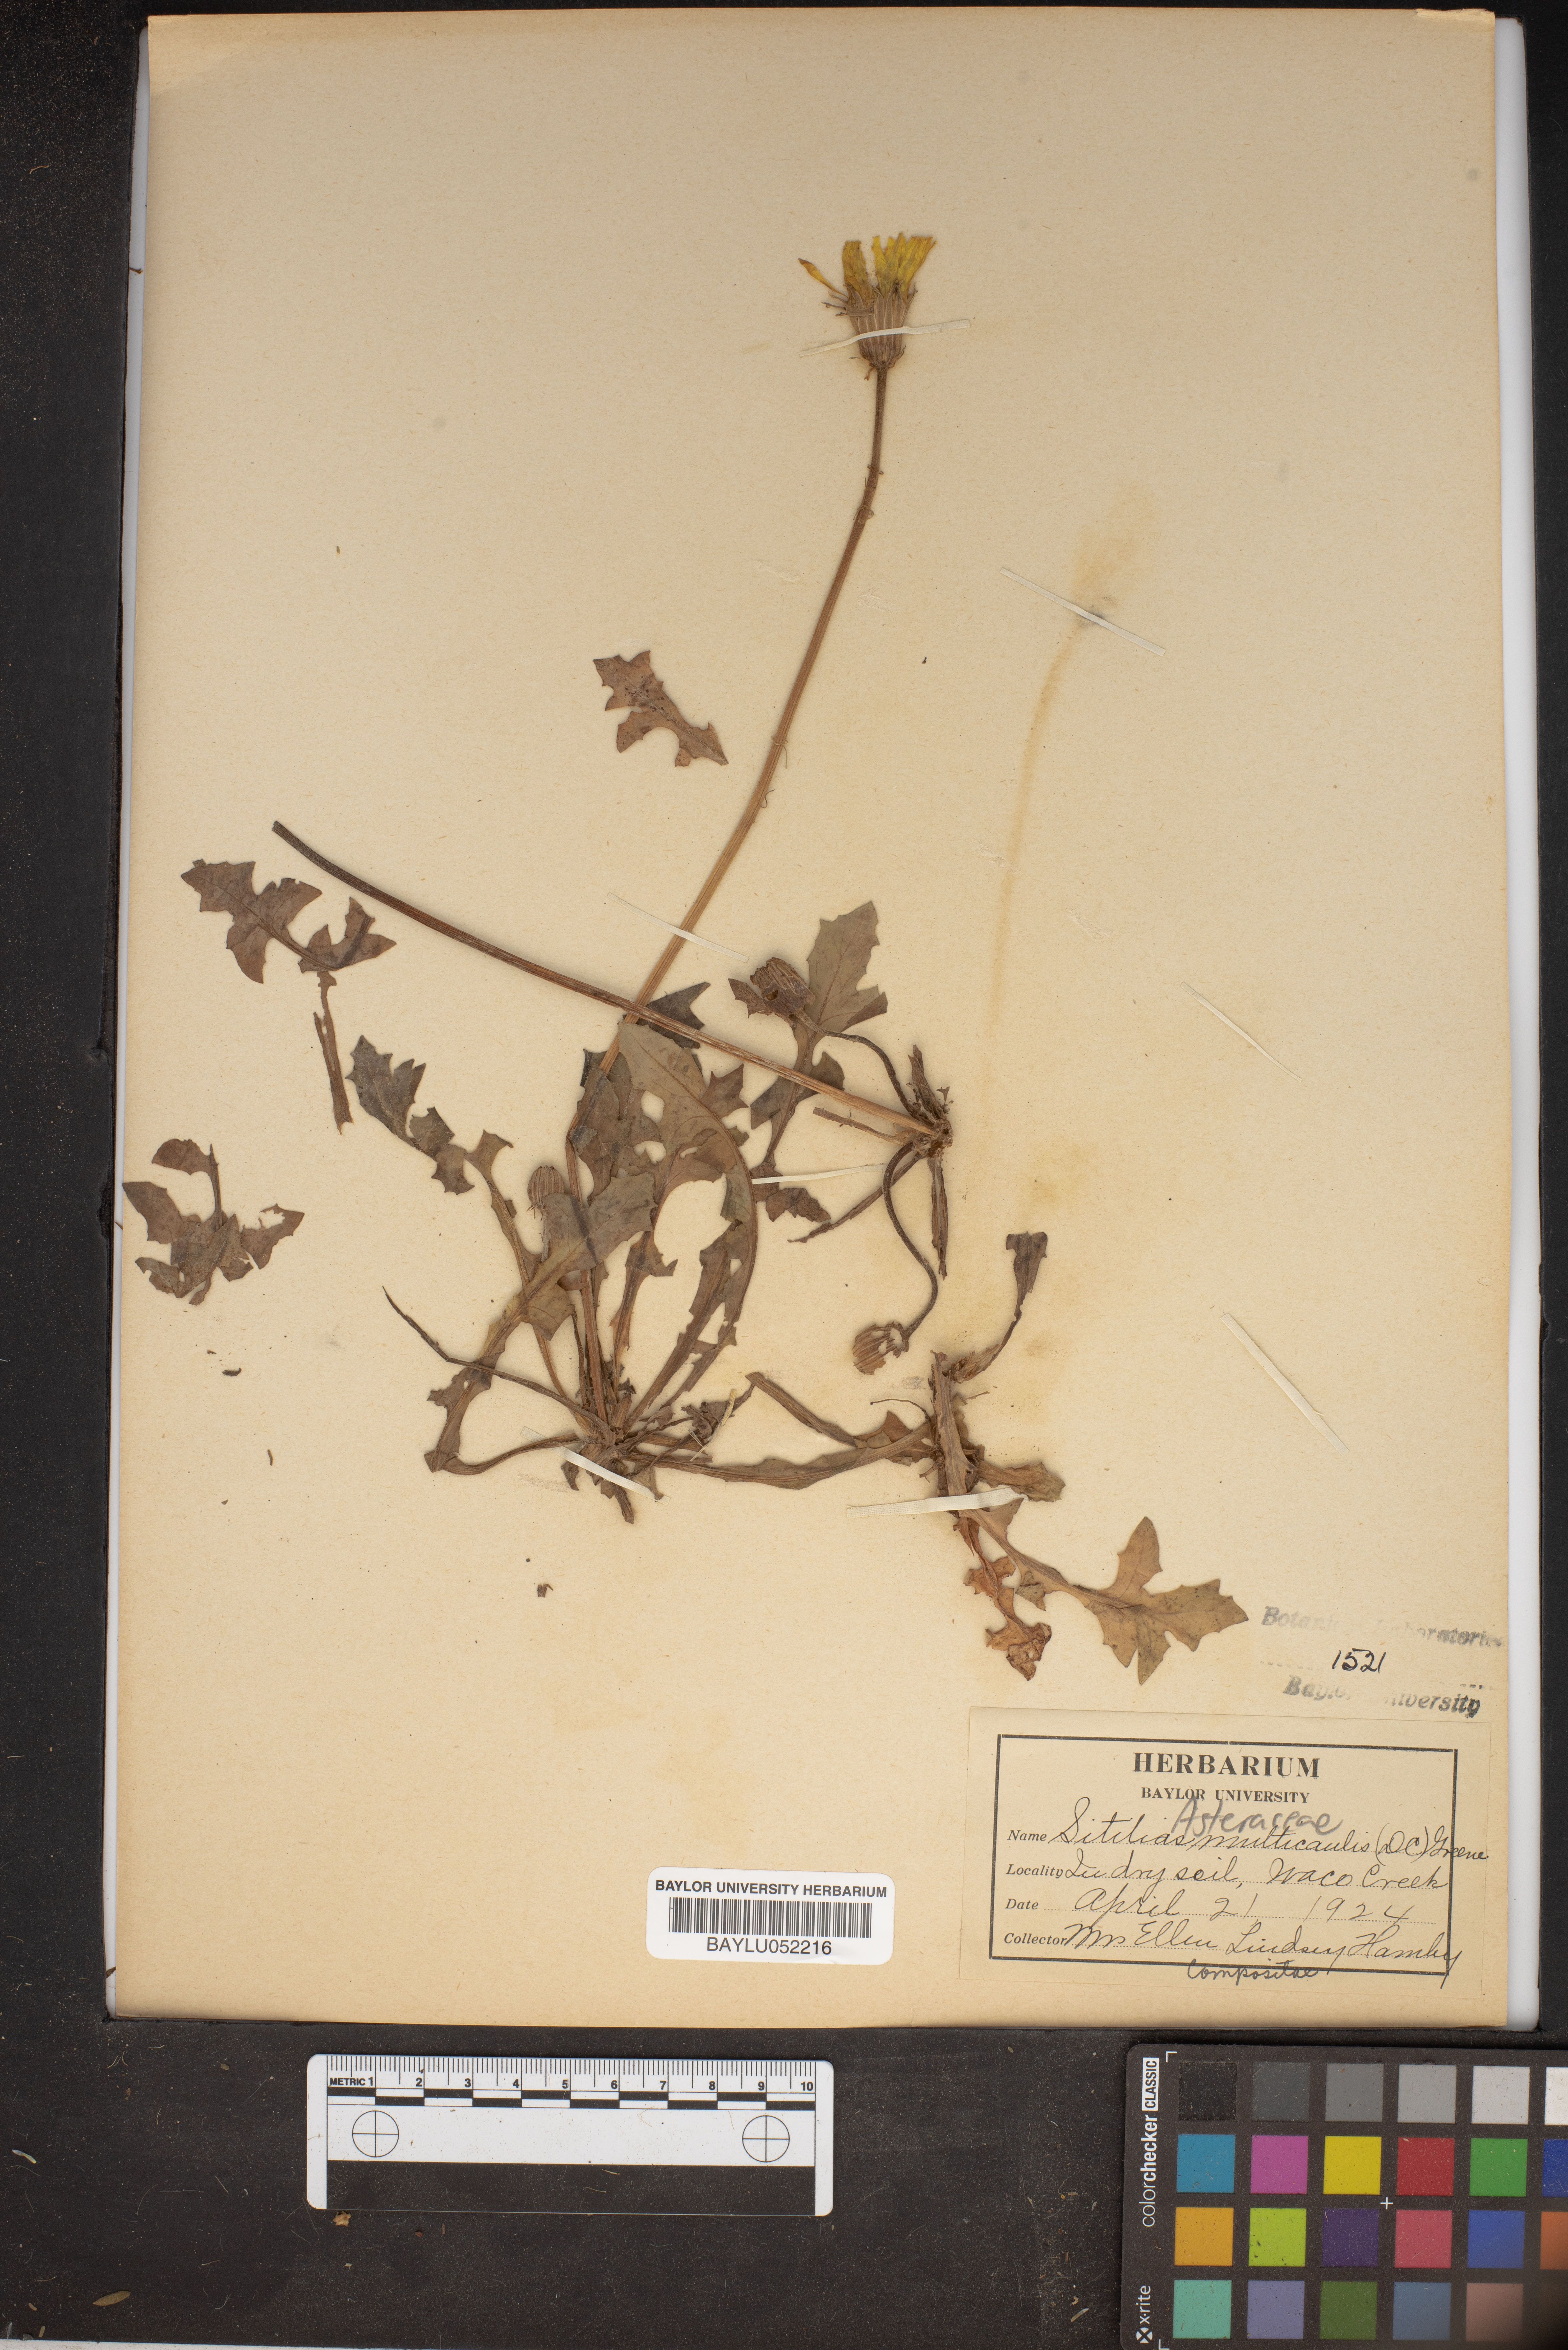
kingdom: Plantae
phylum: Tracheophyta
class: Magnoliopsida
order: Asterales
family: Asteraceae
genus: Pyrrhopappus
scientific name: Pyrrhopappus pauciflorus
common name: Texas false dandelion
